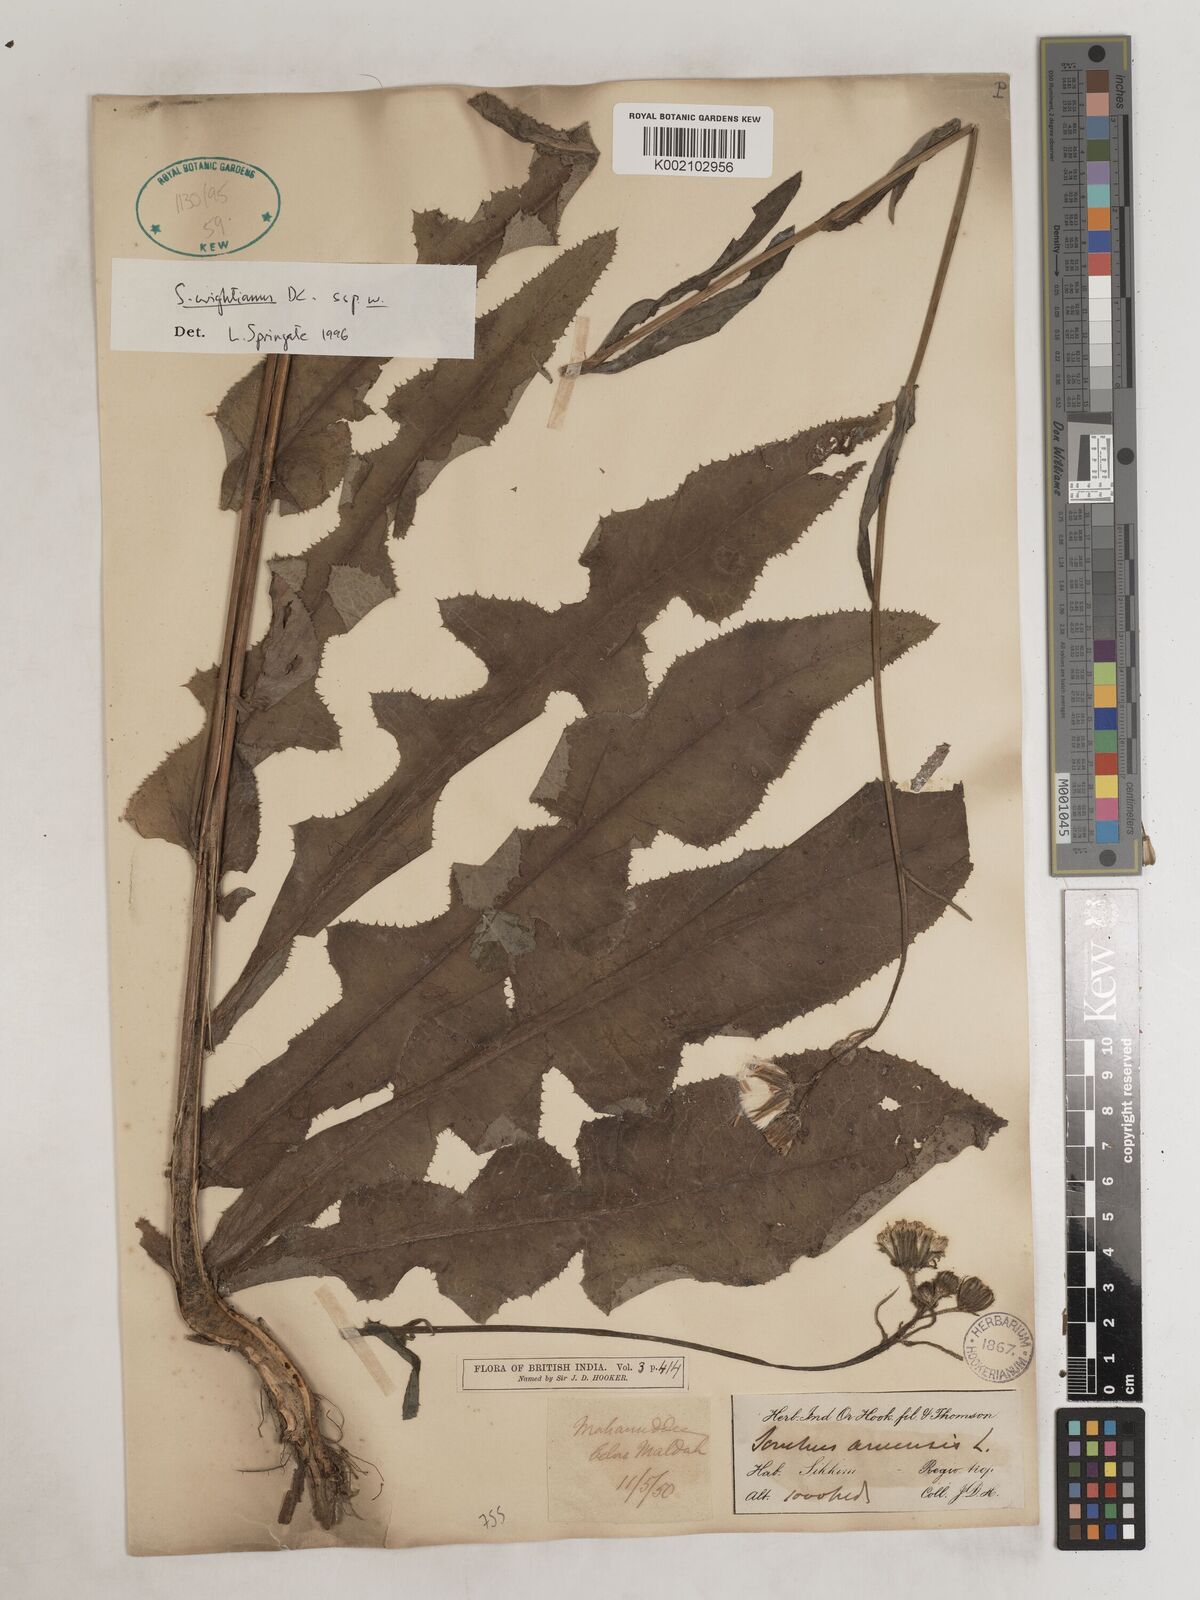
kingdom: Plantae
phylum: Tracheophyta
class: Magnoliopsida
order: Asterales
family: Asteraceae
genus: Sonchus
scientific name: Sonchus arvensis
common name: Perennial sow-thistle
